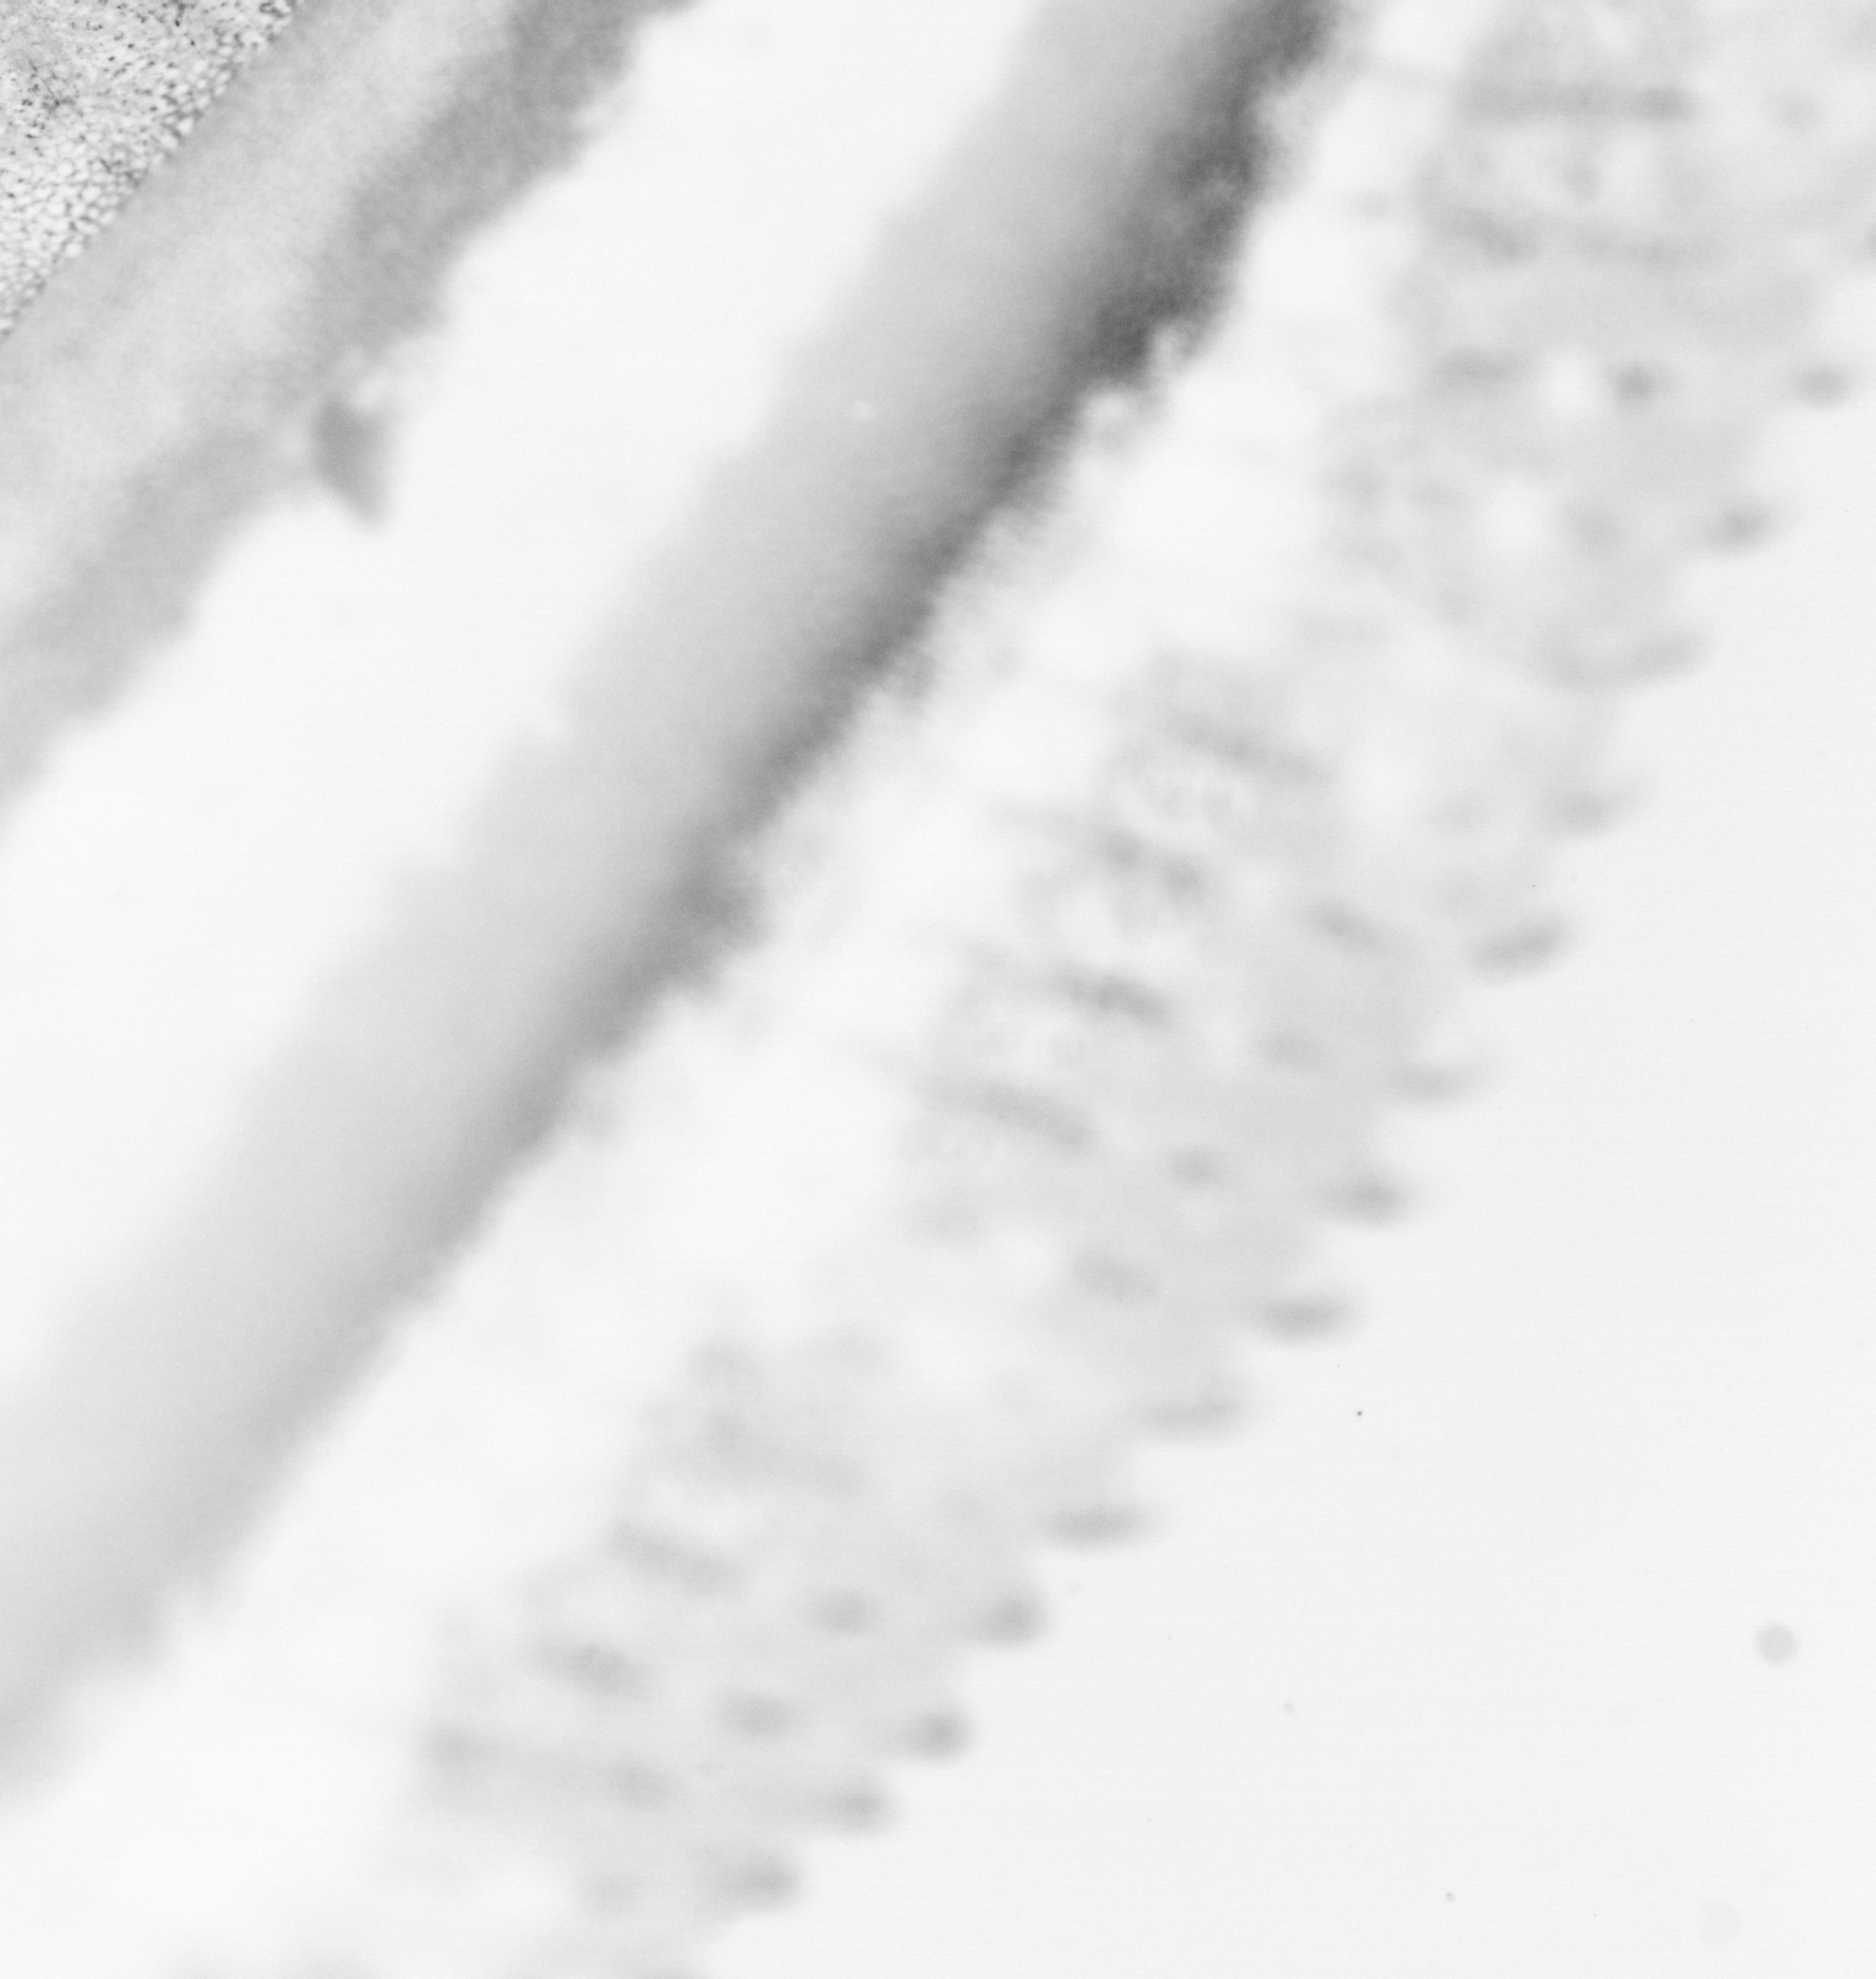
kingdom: Animalia
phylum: Chordata
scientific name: Chordata
